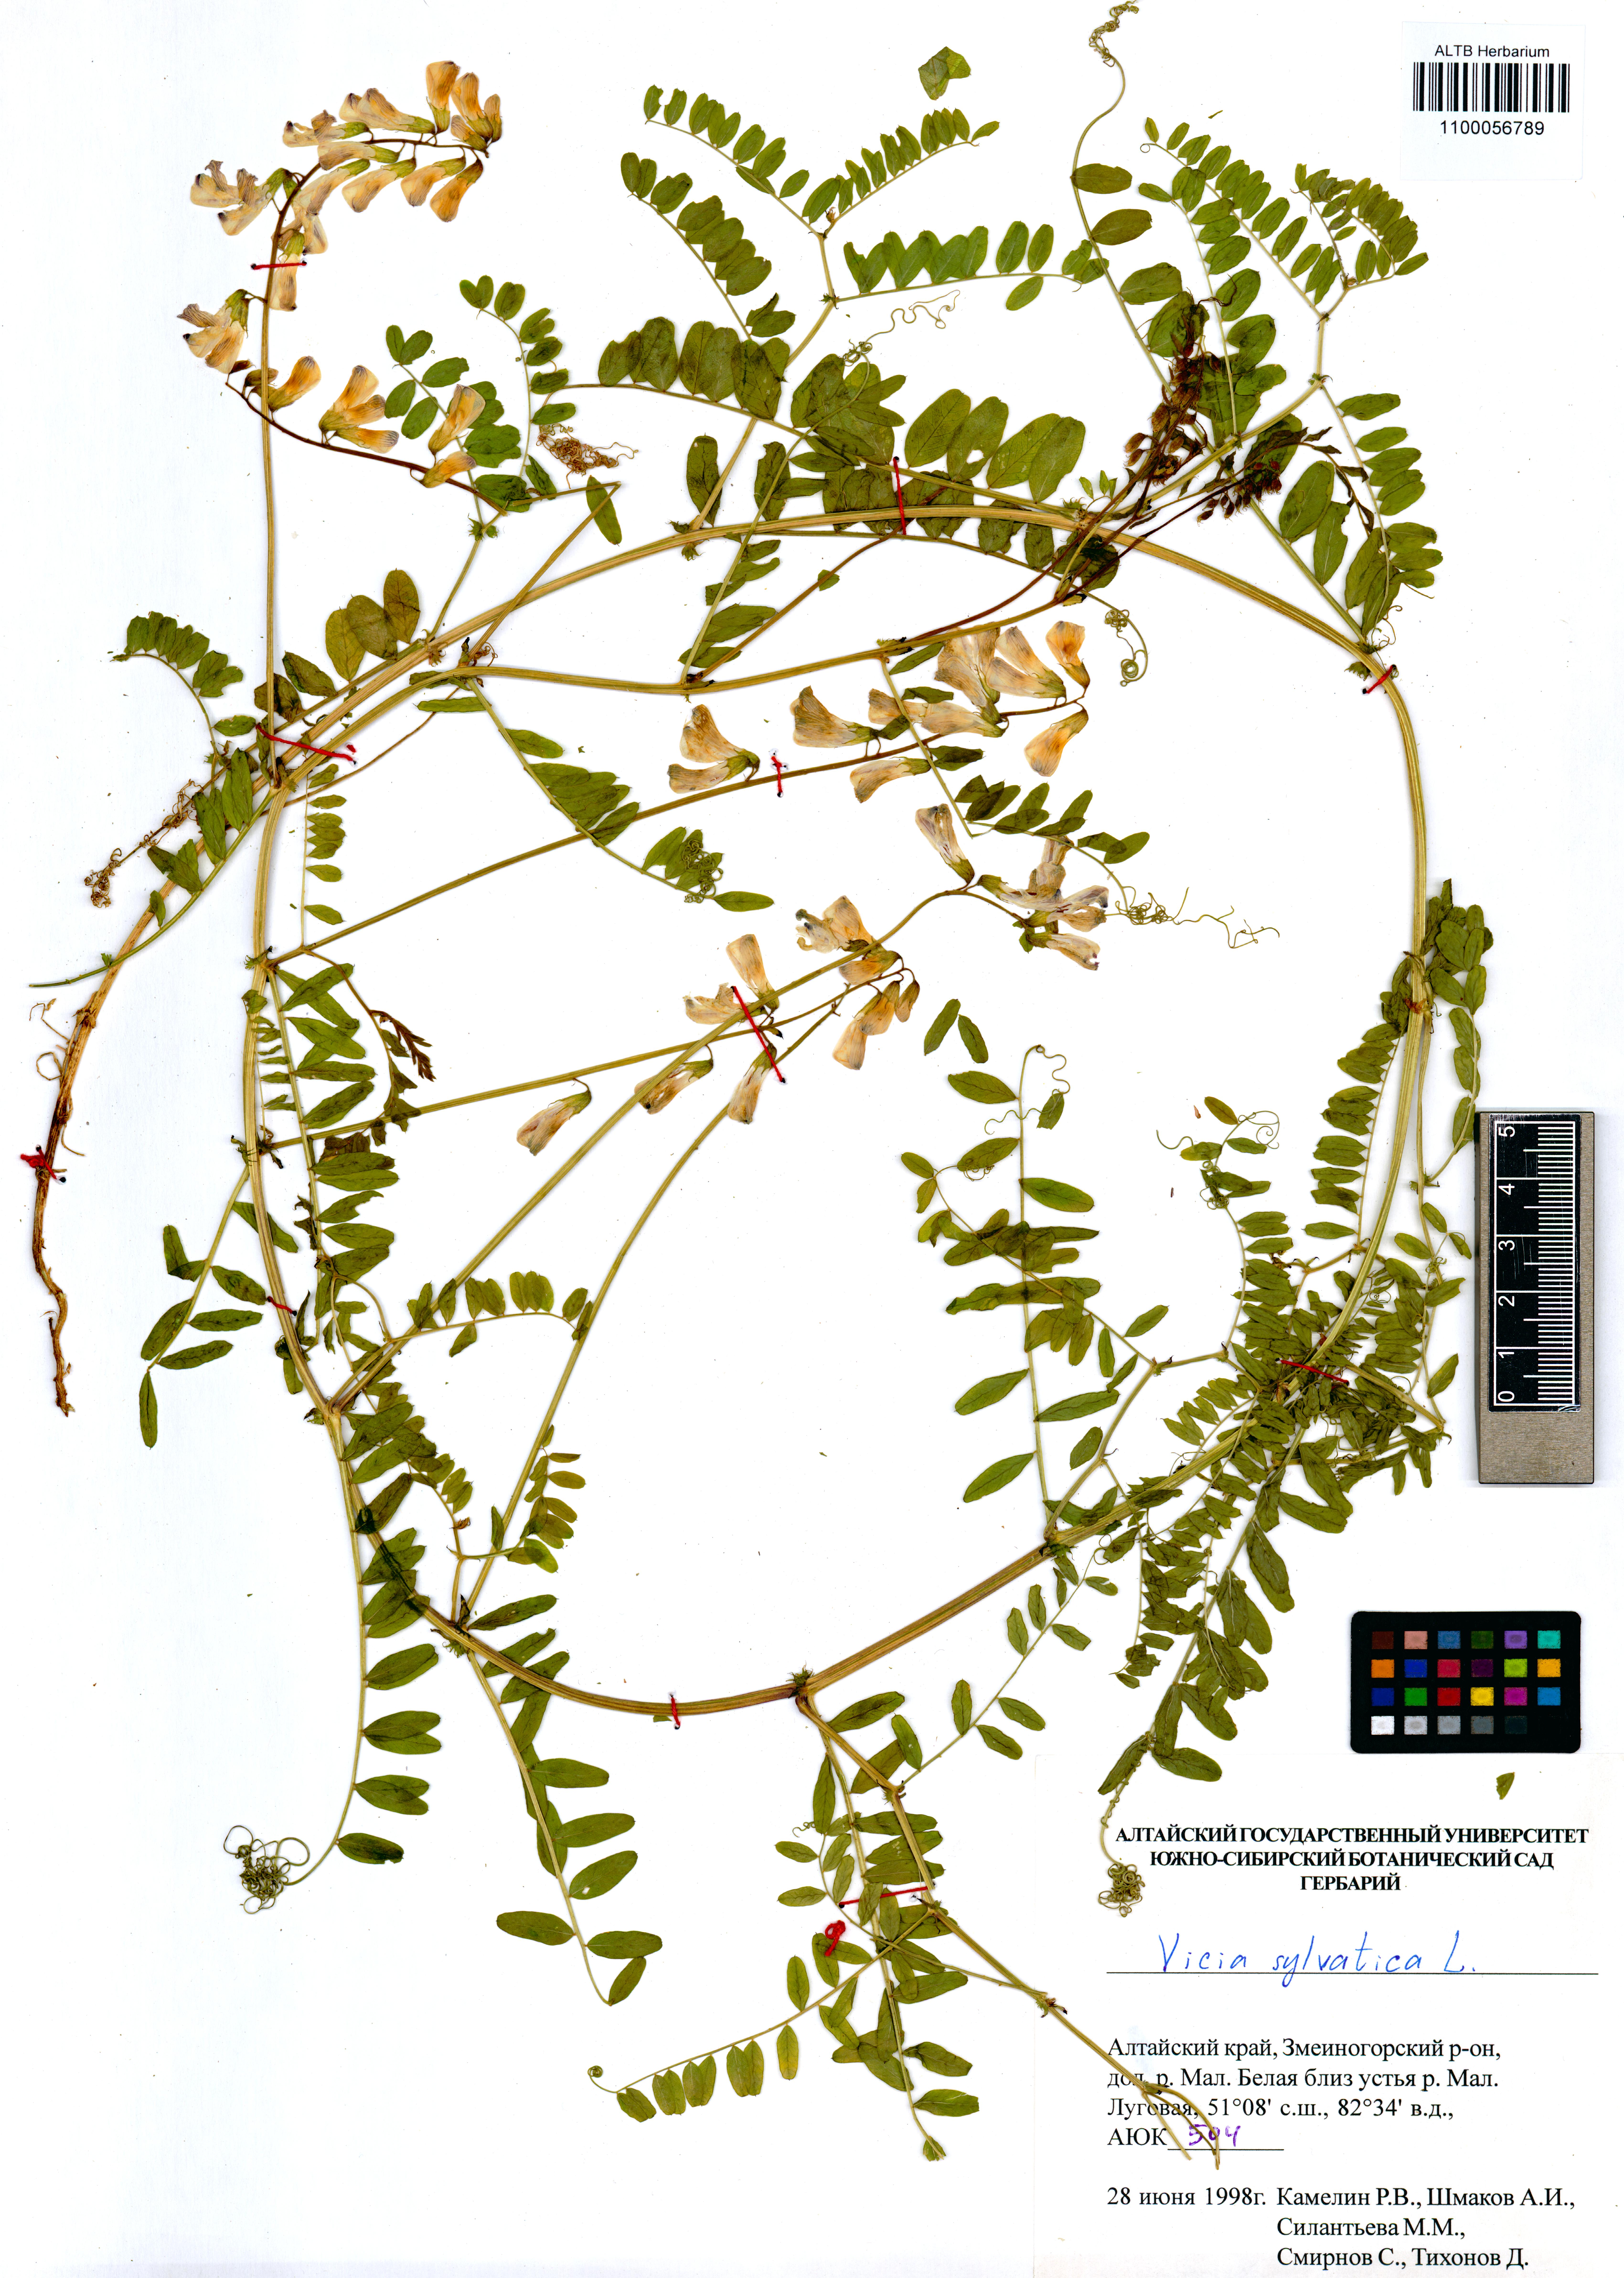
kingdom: Plantae
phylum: Tracheophyta
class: Magnoliopsida
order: Fabales
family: Fabaceae
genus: Vicia
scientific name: Vicia sylvatica
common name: Wood vetch
